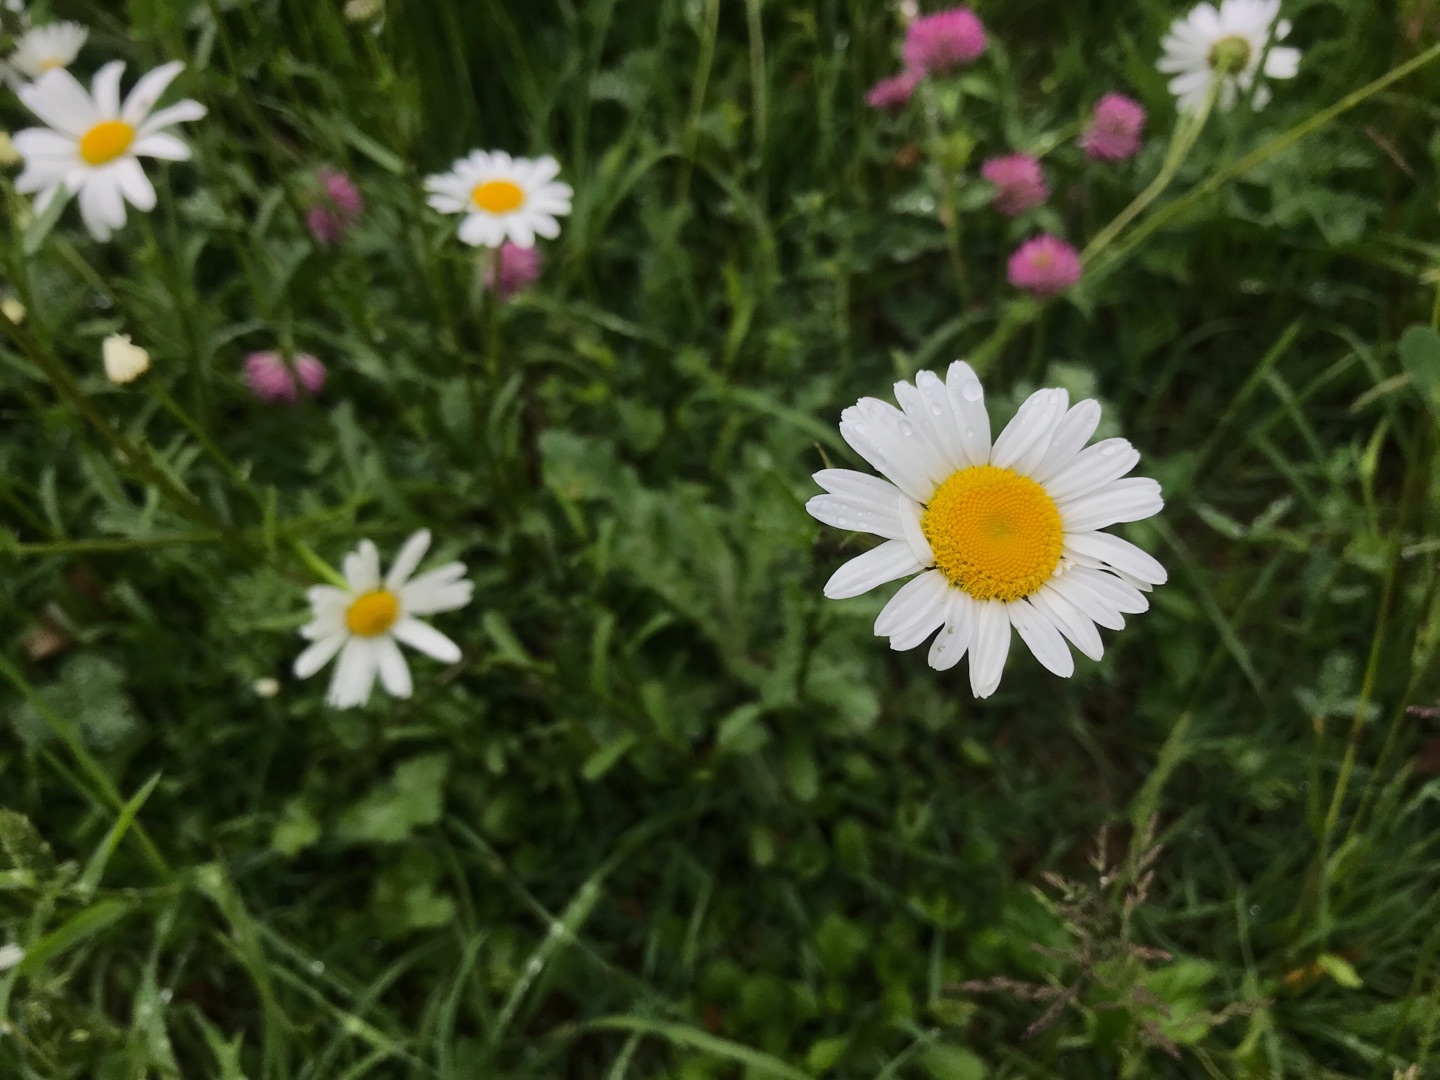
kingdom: Plantae
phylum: Tracheophyta
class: Magnoliopsida
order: Asterales
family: Asteraceae
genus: Leucanthemum
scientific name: Leucanthemum vulgare
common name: Hvid okseøje
